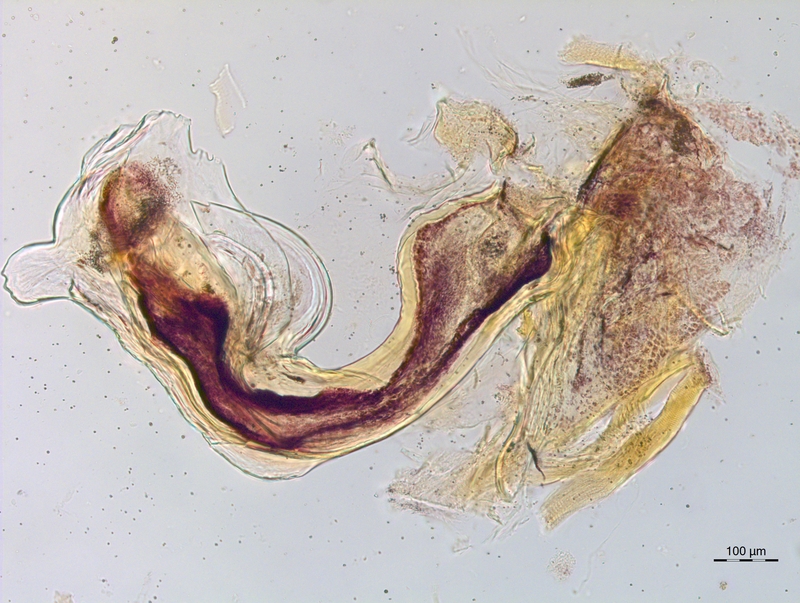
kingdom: Animalia
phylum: Arthropoda
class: Diplopoda
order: Chordeumatida
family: Craspedosomatidae
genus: Craspedosoma
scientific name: Craspedosoma taurinorum
